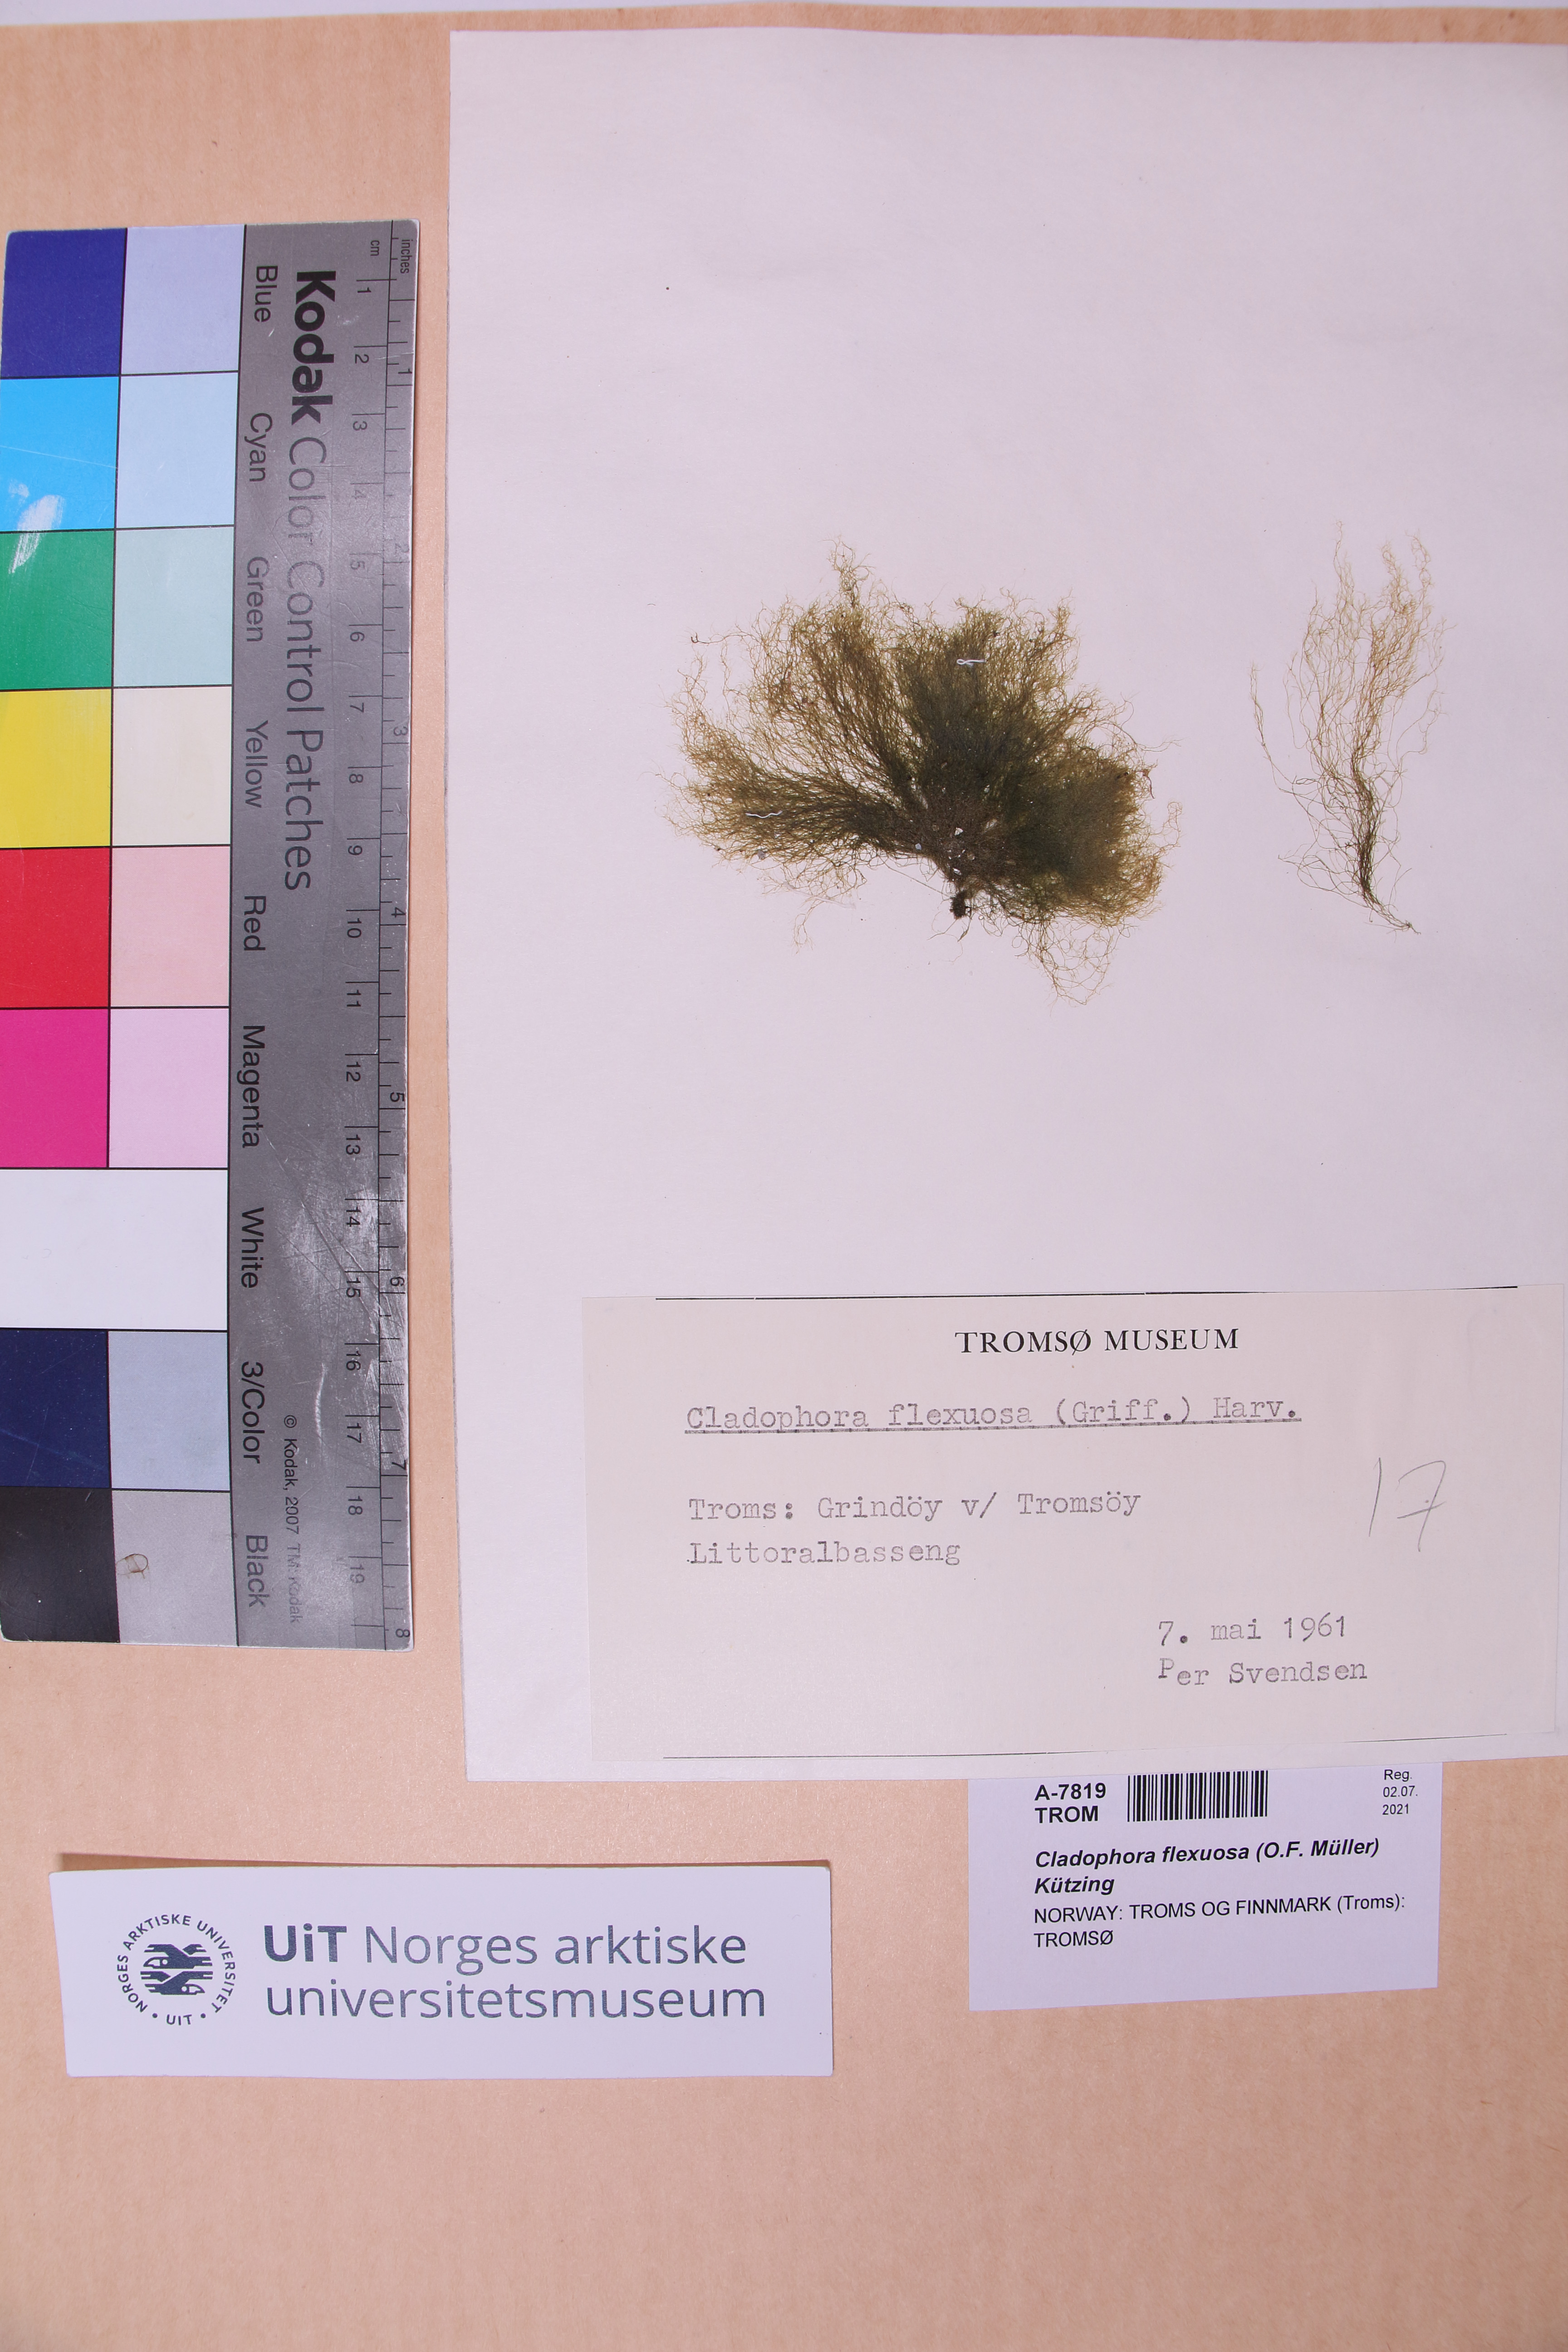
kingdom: Plantae
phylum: Chlorophyta
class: Ulvophyceae
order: Cladophorales
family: Cladophoraceae
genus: Cladophora
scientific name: Cladophora flexuosa
